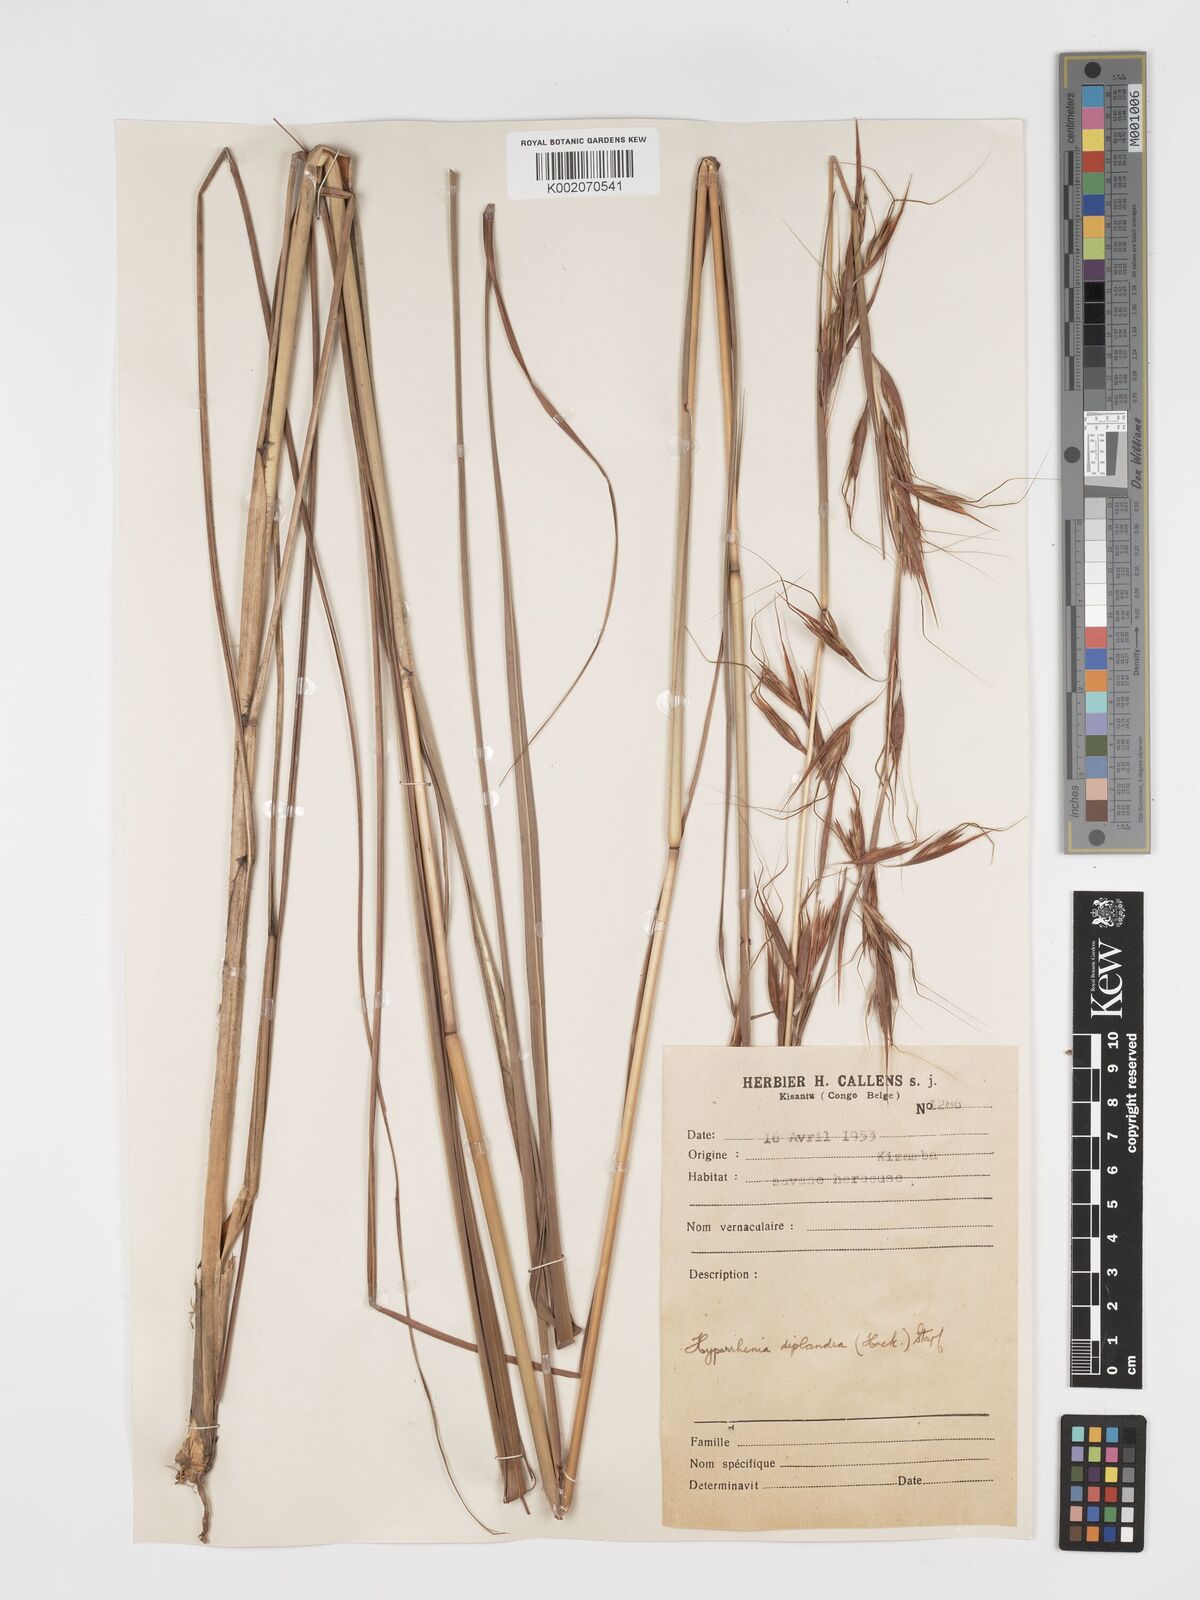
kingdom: Plantae
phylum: Tracheophyta
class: Liliopsida
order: Poales
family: Poaceae
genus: Hyparrhenia
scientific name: Hyparrhenia diplandra
